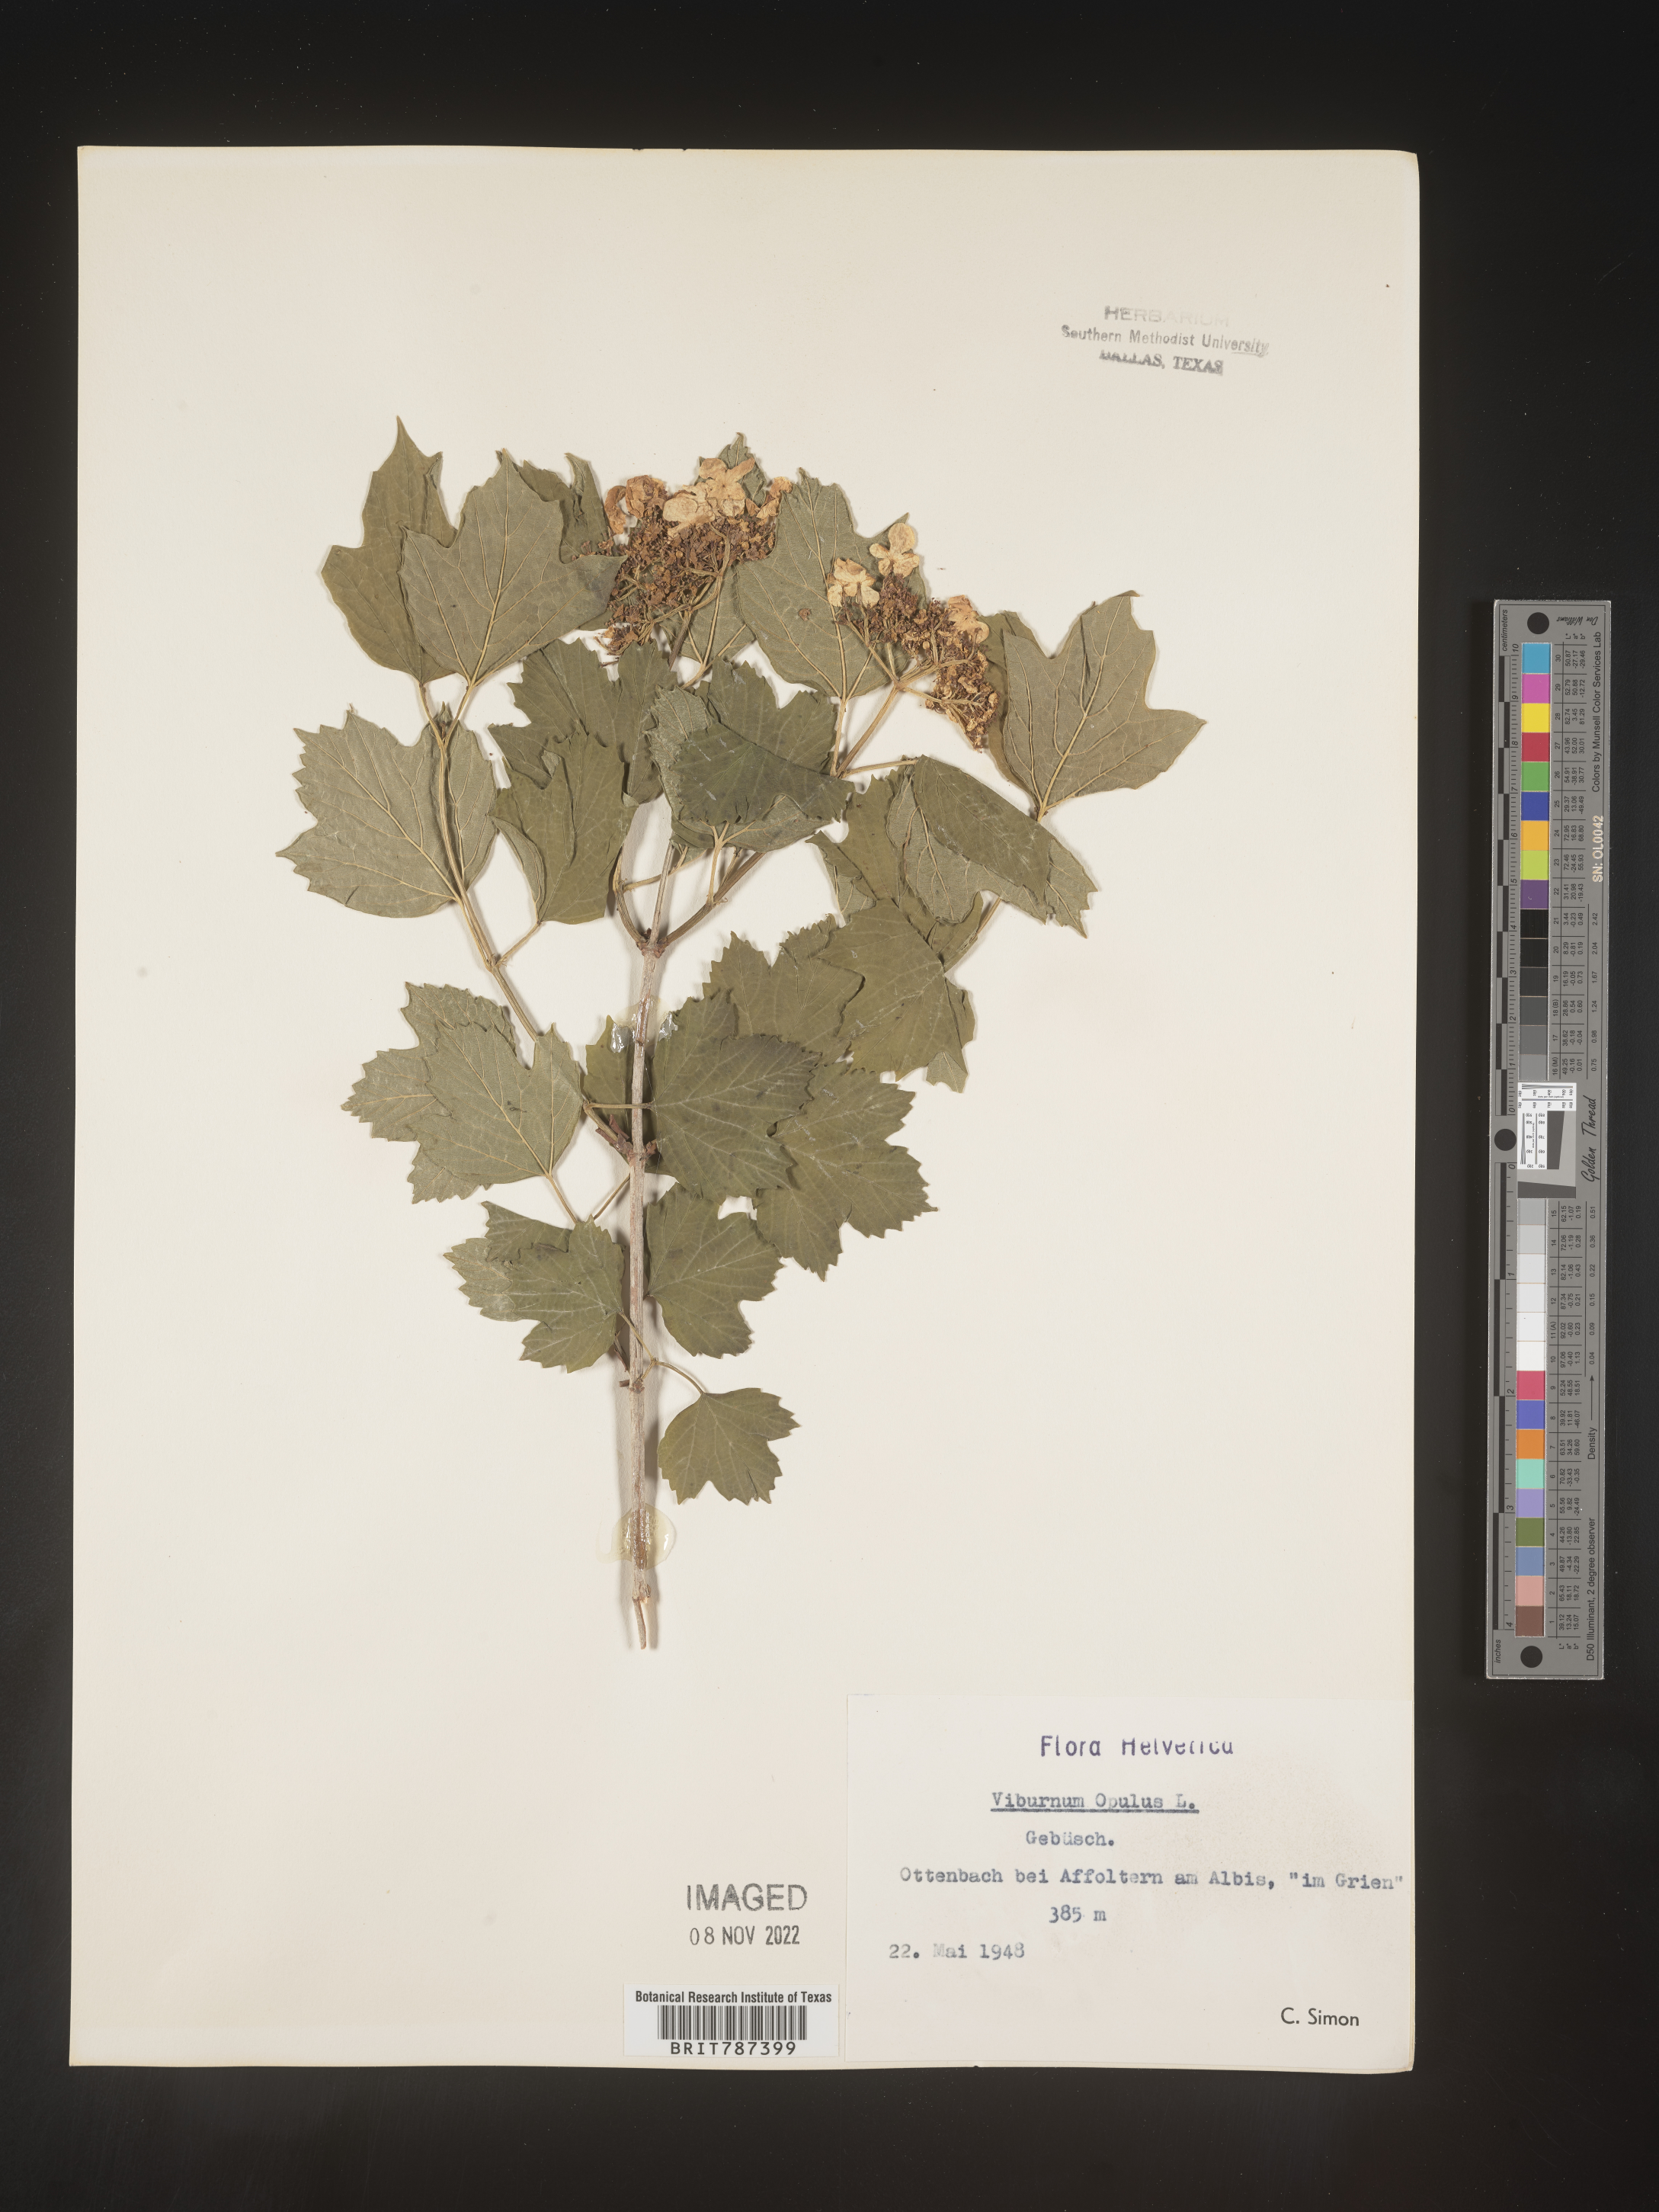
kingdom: Plantae
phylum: Tracheophyta
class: Magnoliopsida
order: Dipsacales
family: Viburnaceae
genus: Viburnum
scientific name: Viburnum opulus
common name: Guelder-rose
